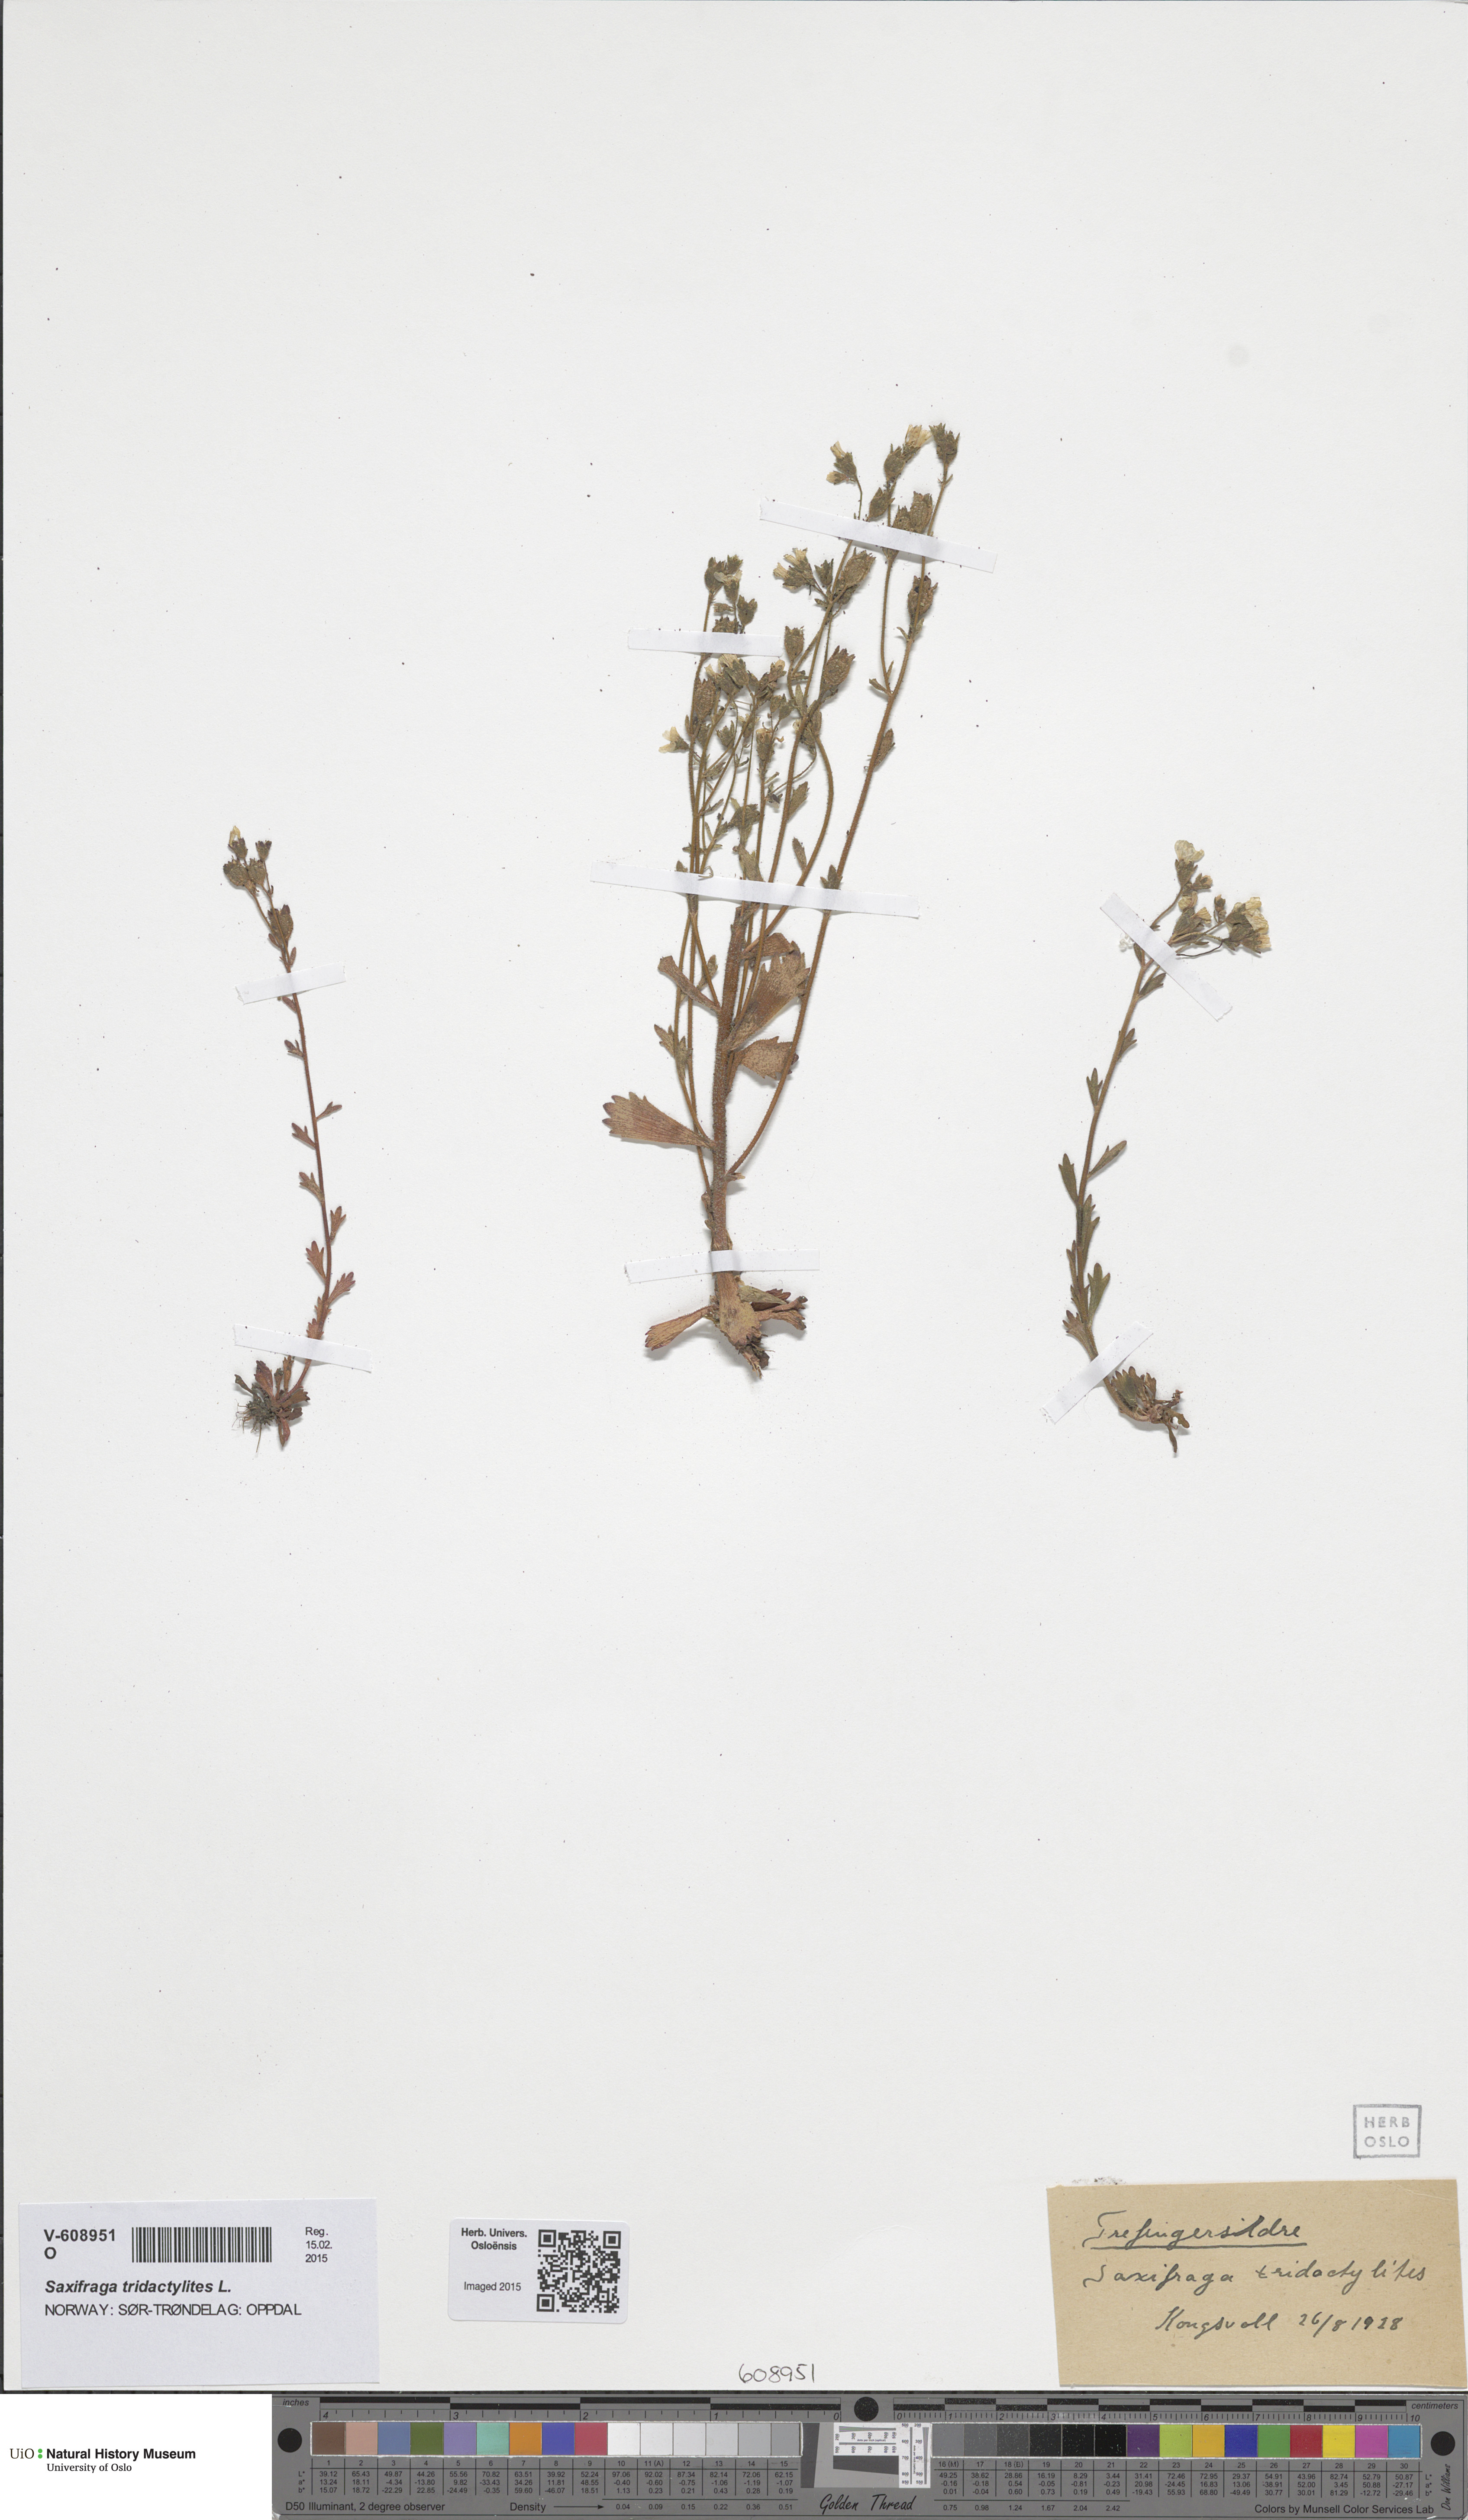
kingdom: Plantae
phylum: Tracheophyta
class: Magnoliopsida
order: Saxifragales
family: Saxifragaceae
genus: Saxifraga
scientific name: Saxifraga adscendens
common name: Ascending saxifrage
